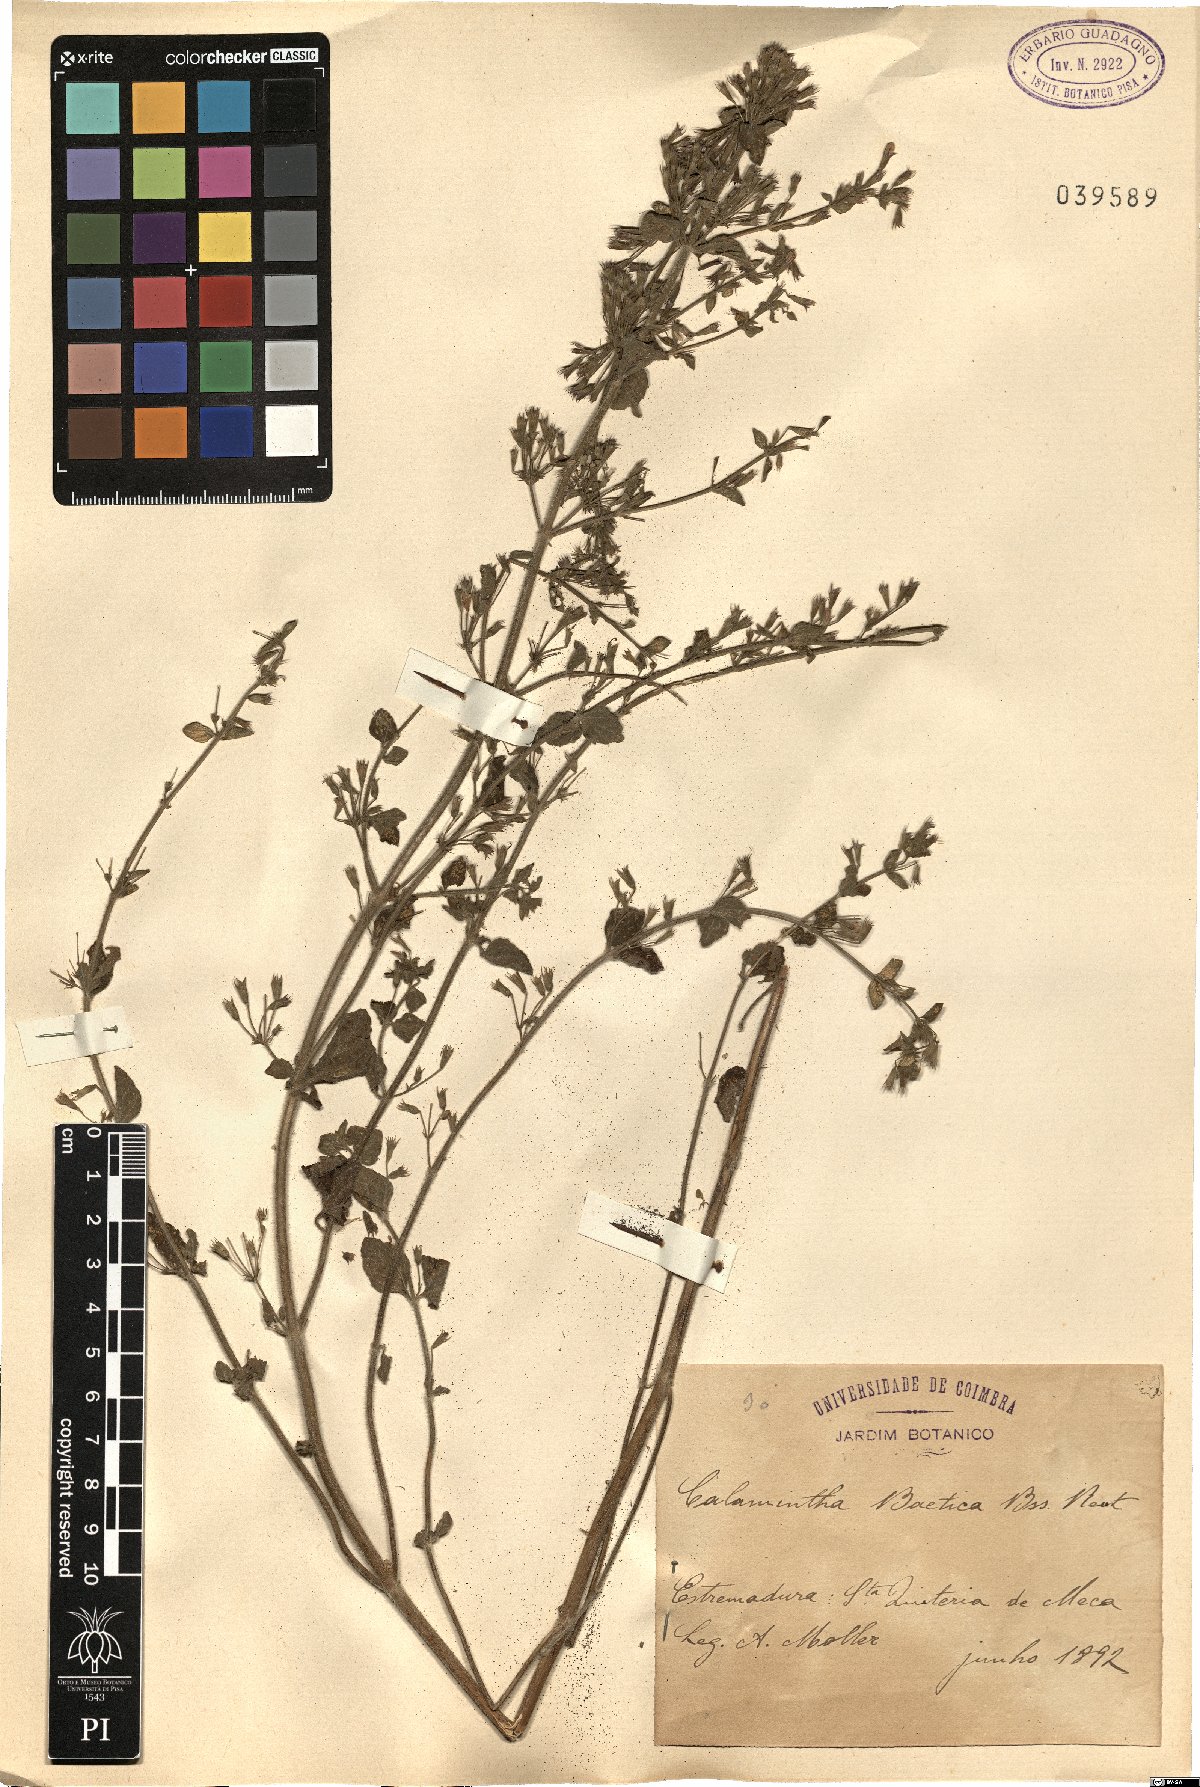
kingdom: Plantae
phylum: Tracheophyta
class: Magnoliopsida
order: Lamiales
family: Lamiaceae
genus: Clinopodium
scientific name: Clinopodium nepeta
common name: Lesser calamint
